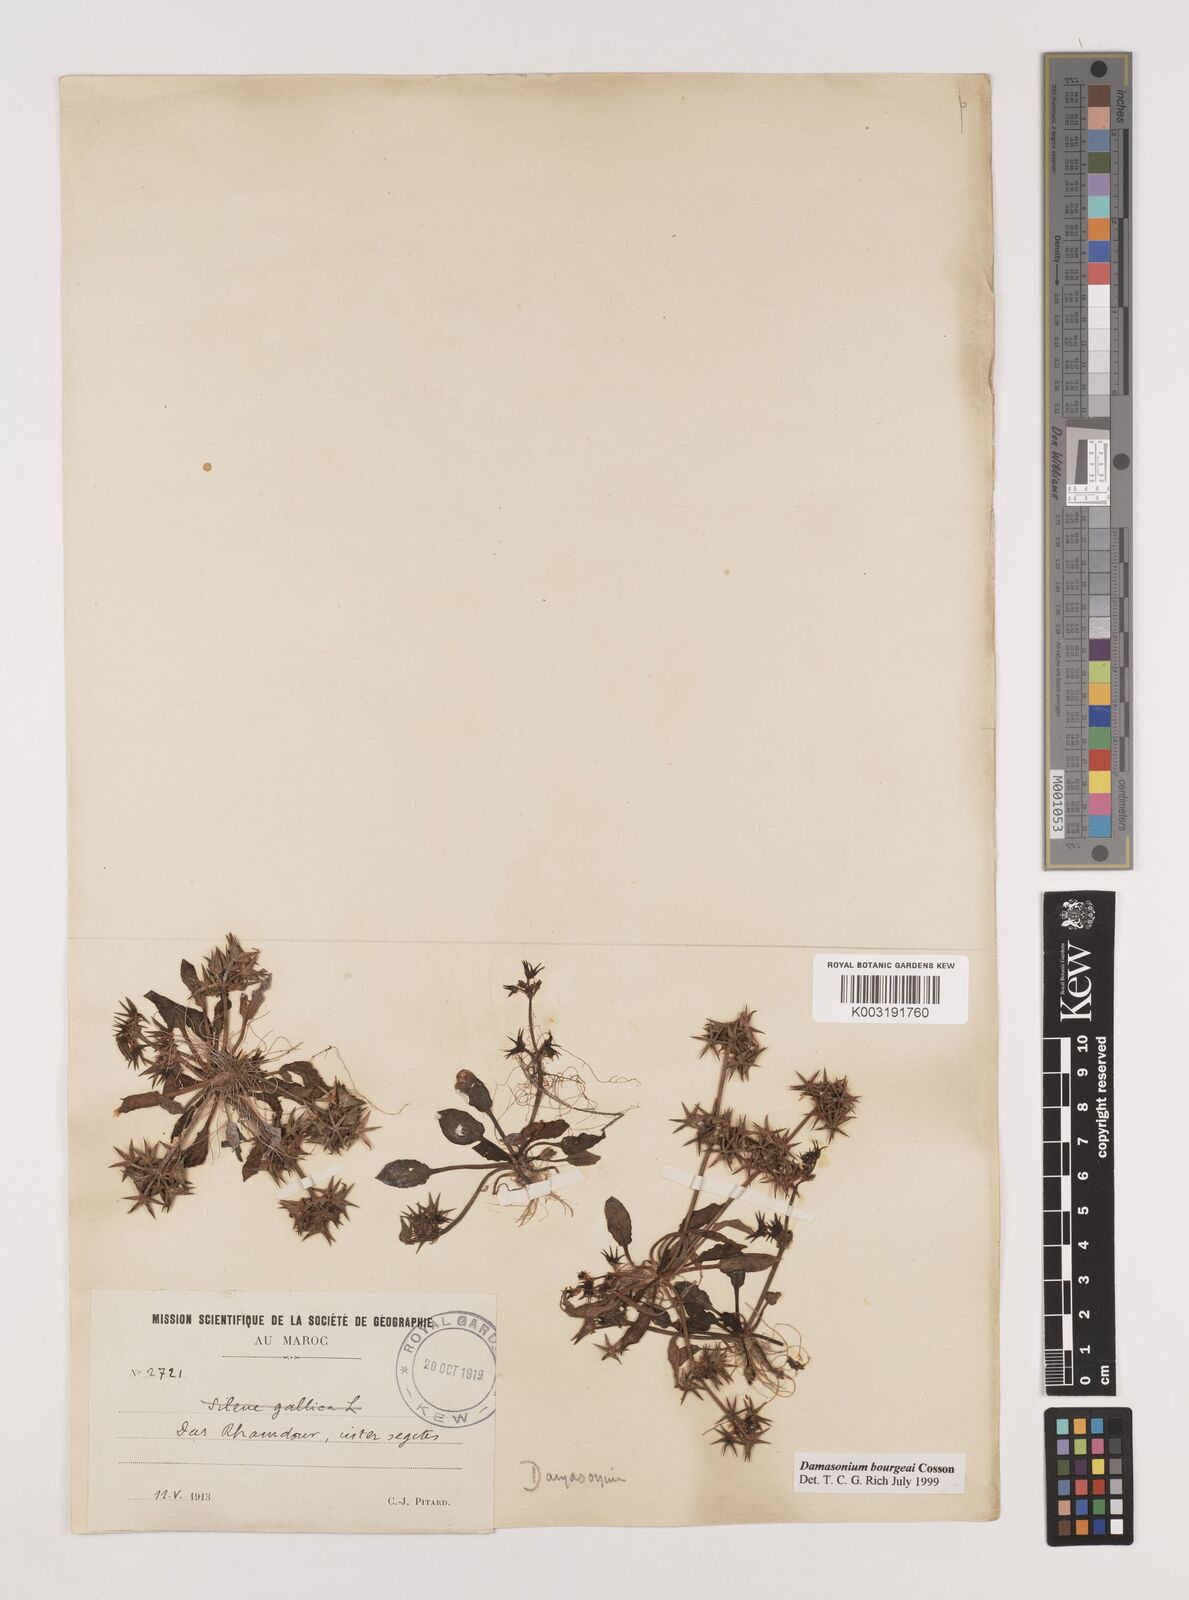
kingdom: Plantae
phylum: Tracheophyta
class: Liliopsida
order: Alismatales
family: Alismataceae
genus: Damasonium
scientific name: Damasonium bourgaei
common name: Starfruit
